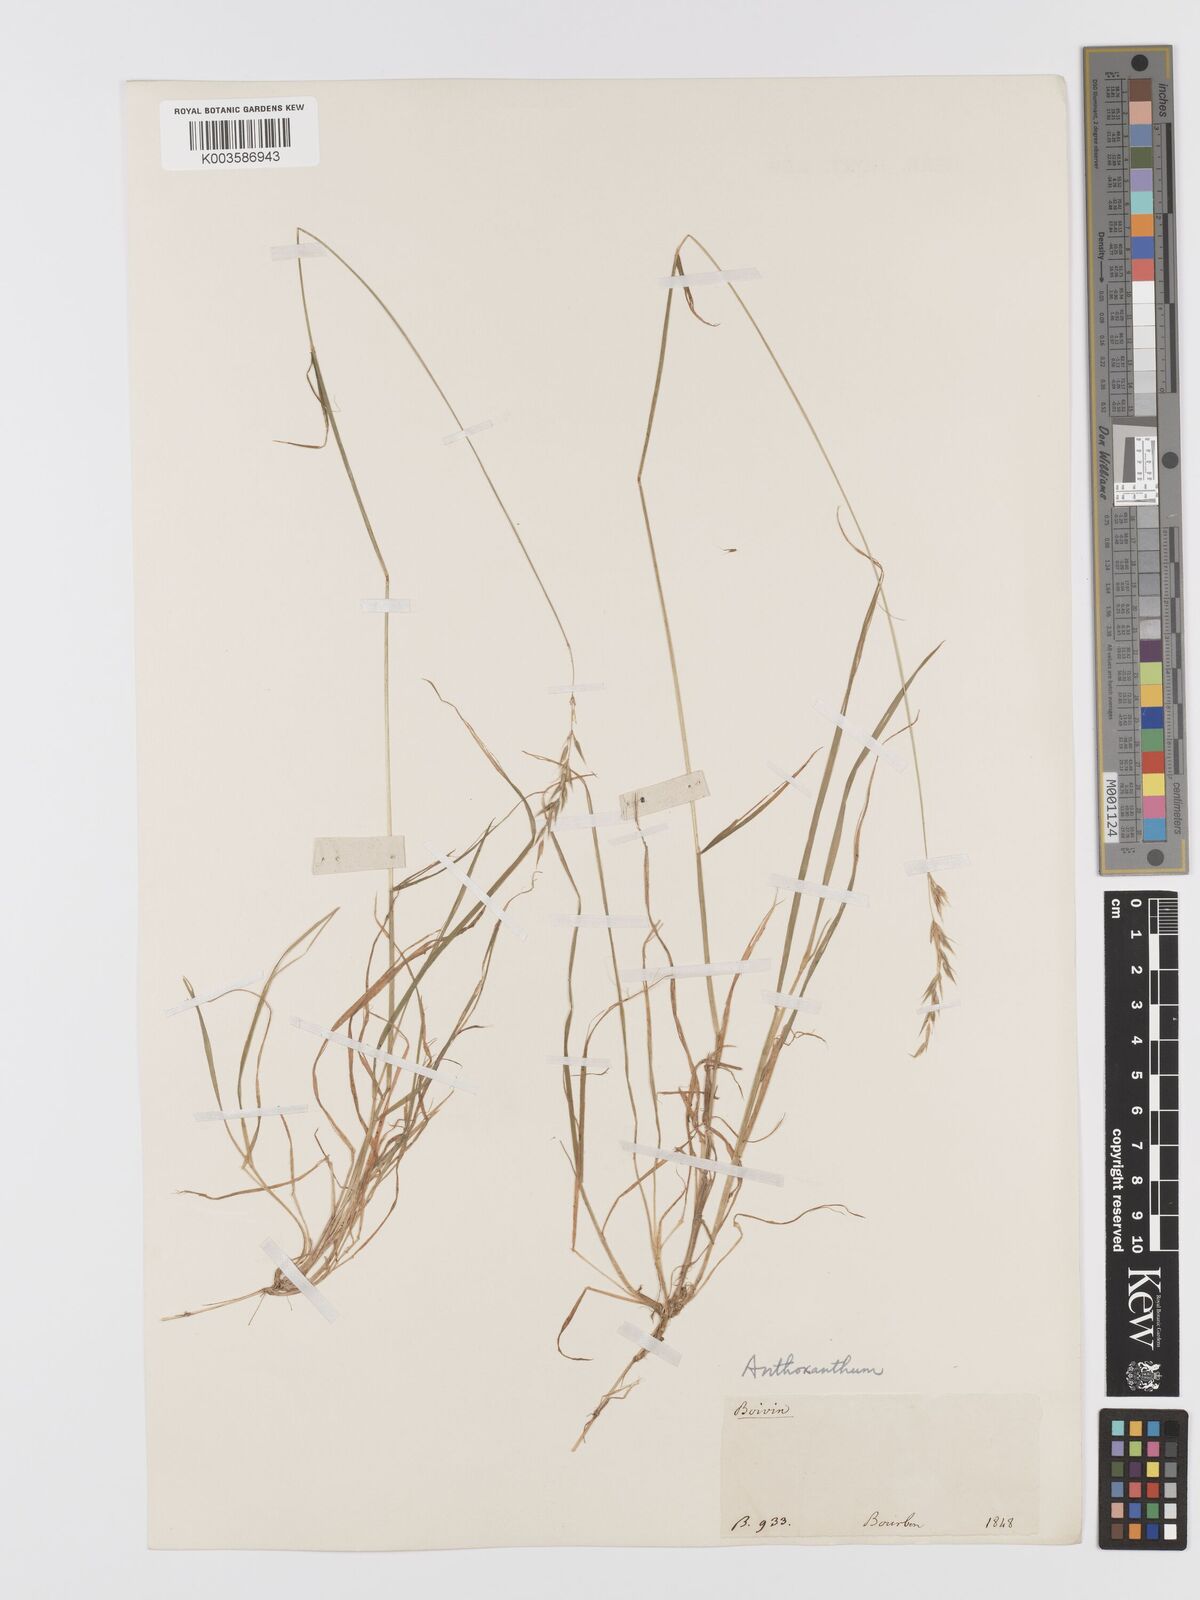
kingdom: Plantae
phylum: Tracheophyta
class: Liliopsida
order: Poales
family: Poaceae
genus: Anthoxanthum
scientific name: Anthoxanthum
